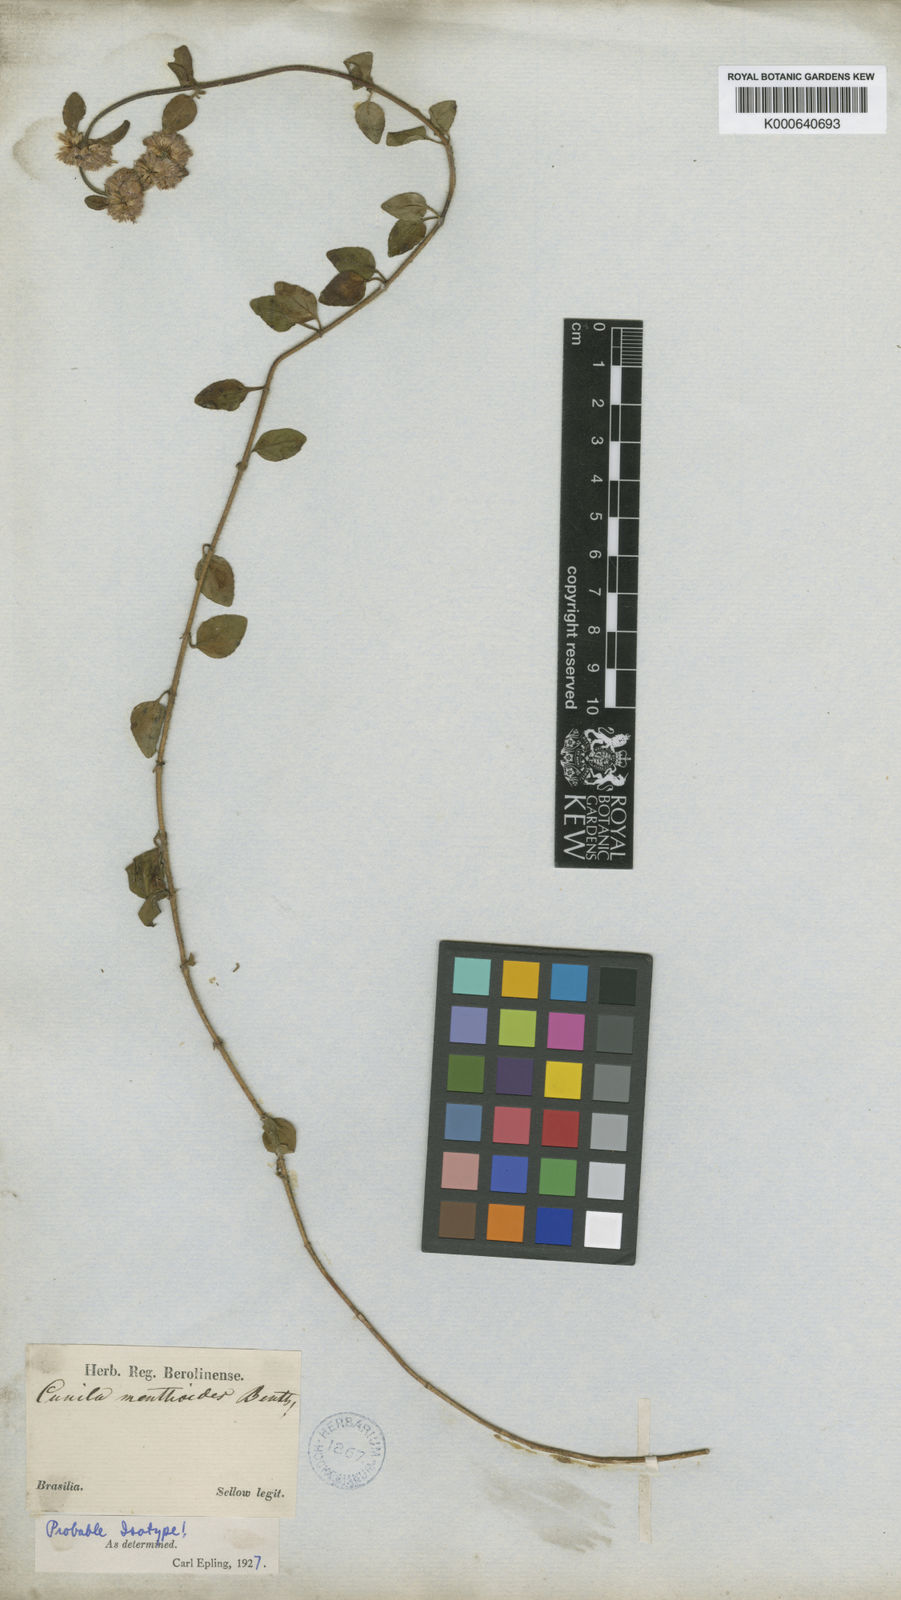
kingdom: Plantae
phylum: Tracheophyta
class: Magnoliopsida
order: Lamiales
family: Lamiaceae
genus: Cunila
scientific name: Cunila menthoides
